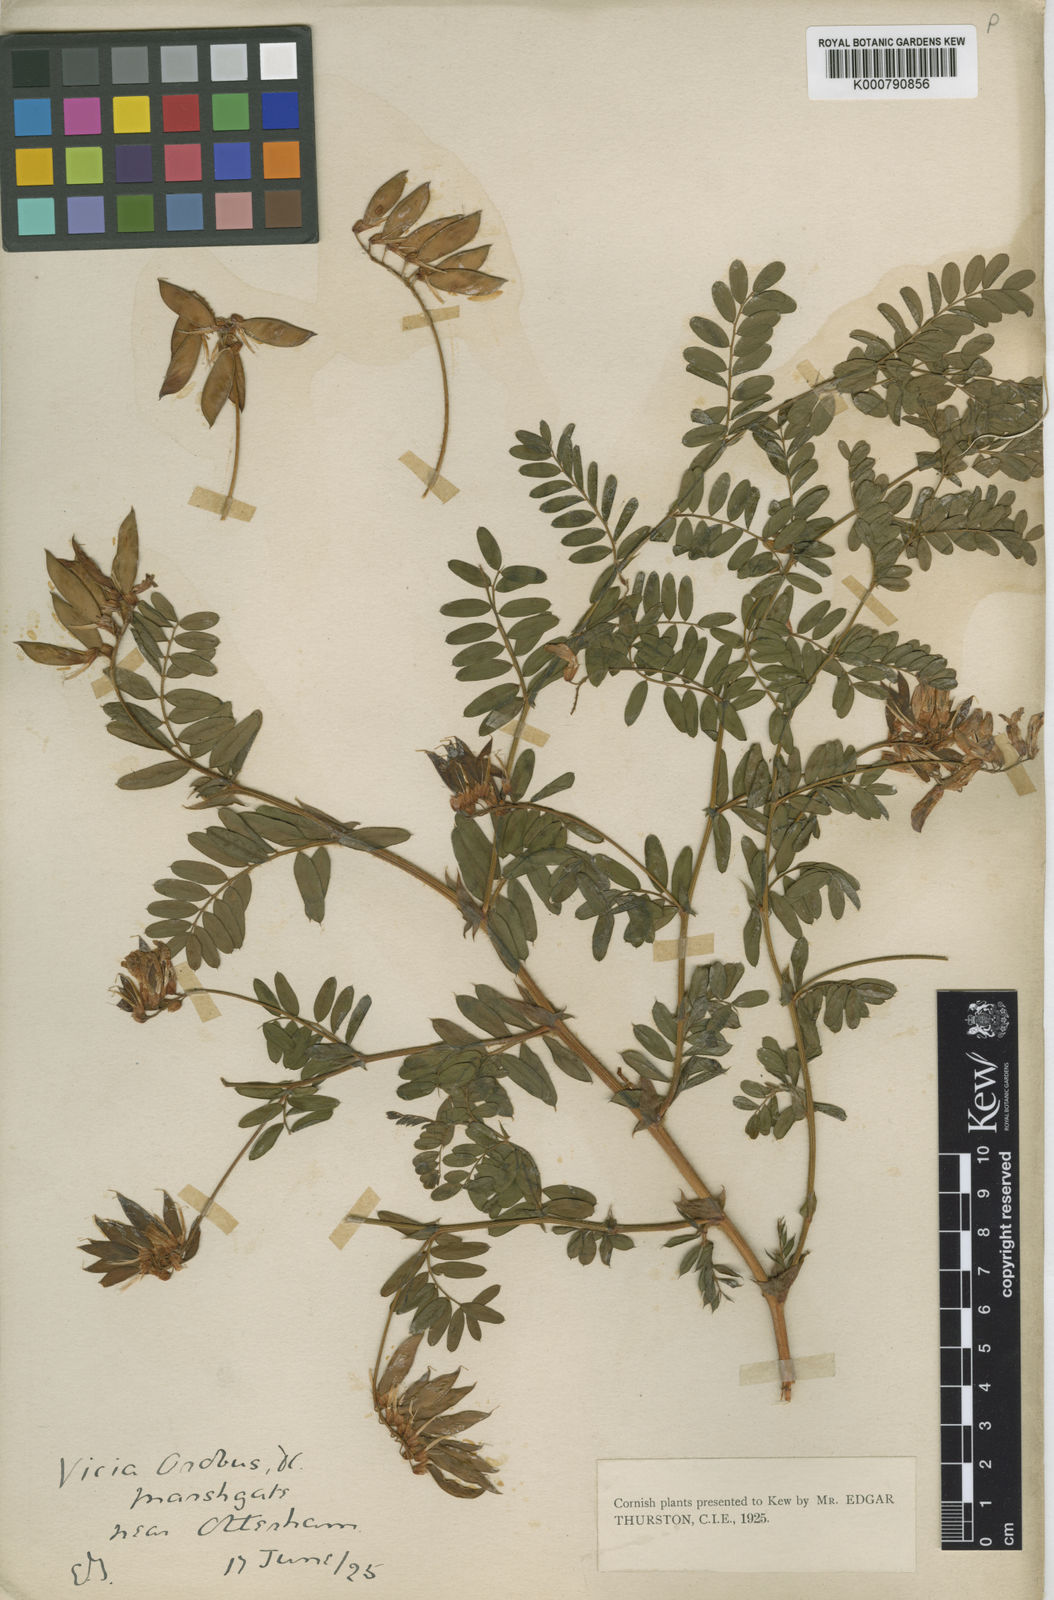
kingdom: Plantae
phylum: Tracheophyta
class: Magnoliopsida
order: Fabales
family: Fabaceae
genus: Vicia
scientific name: Vicia orobus
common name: Wood bitter-vetch
